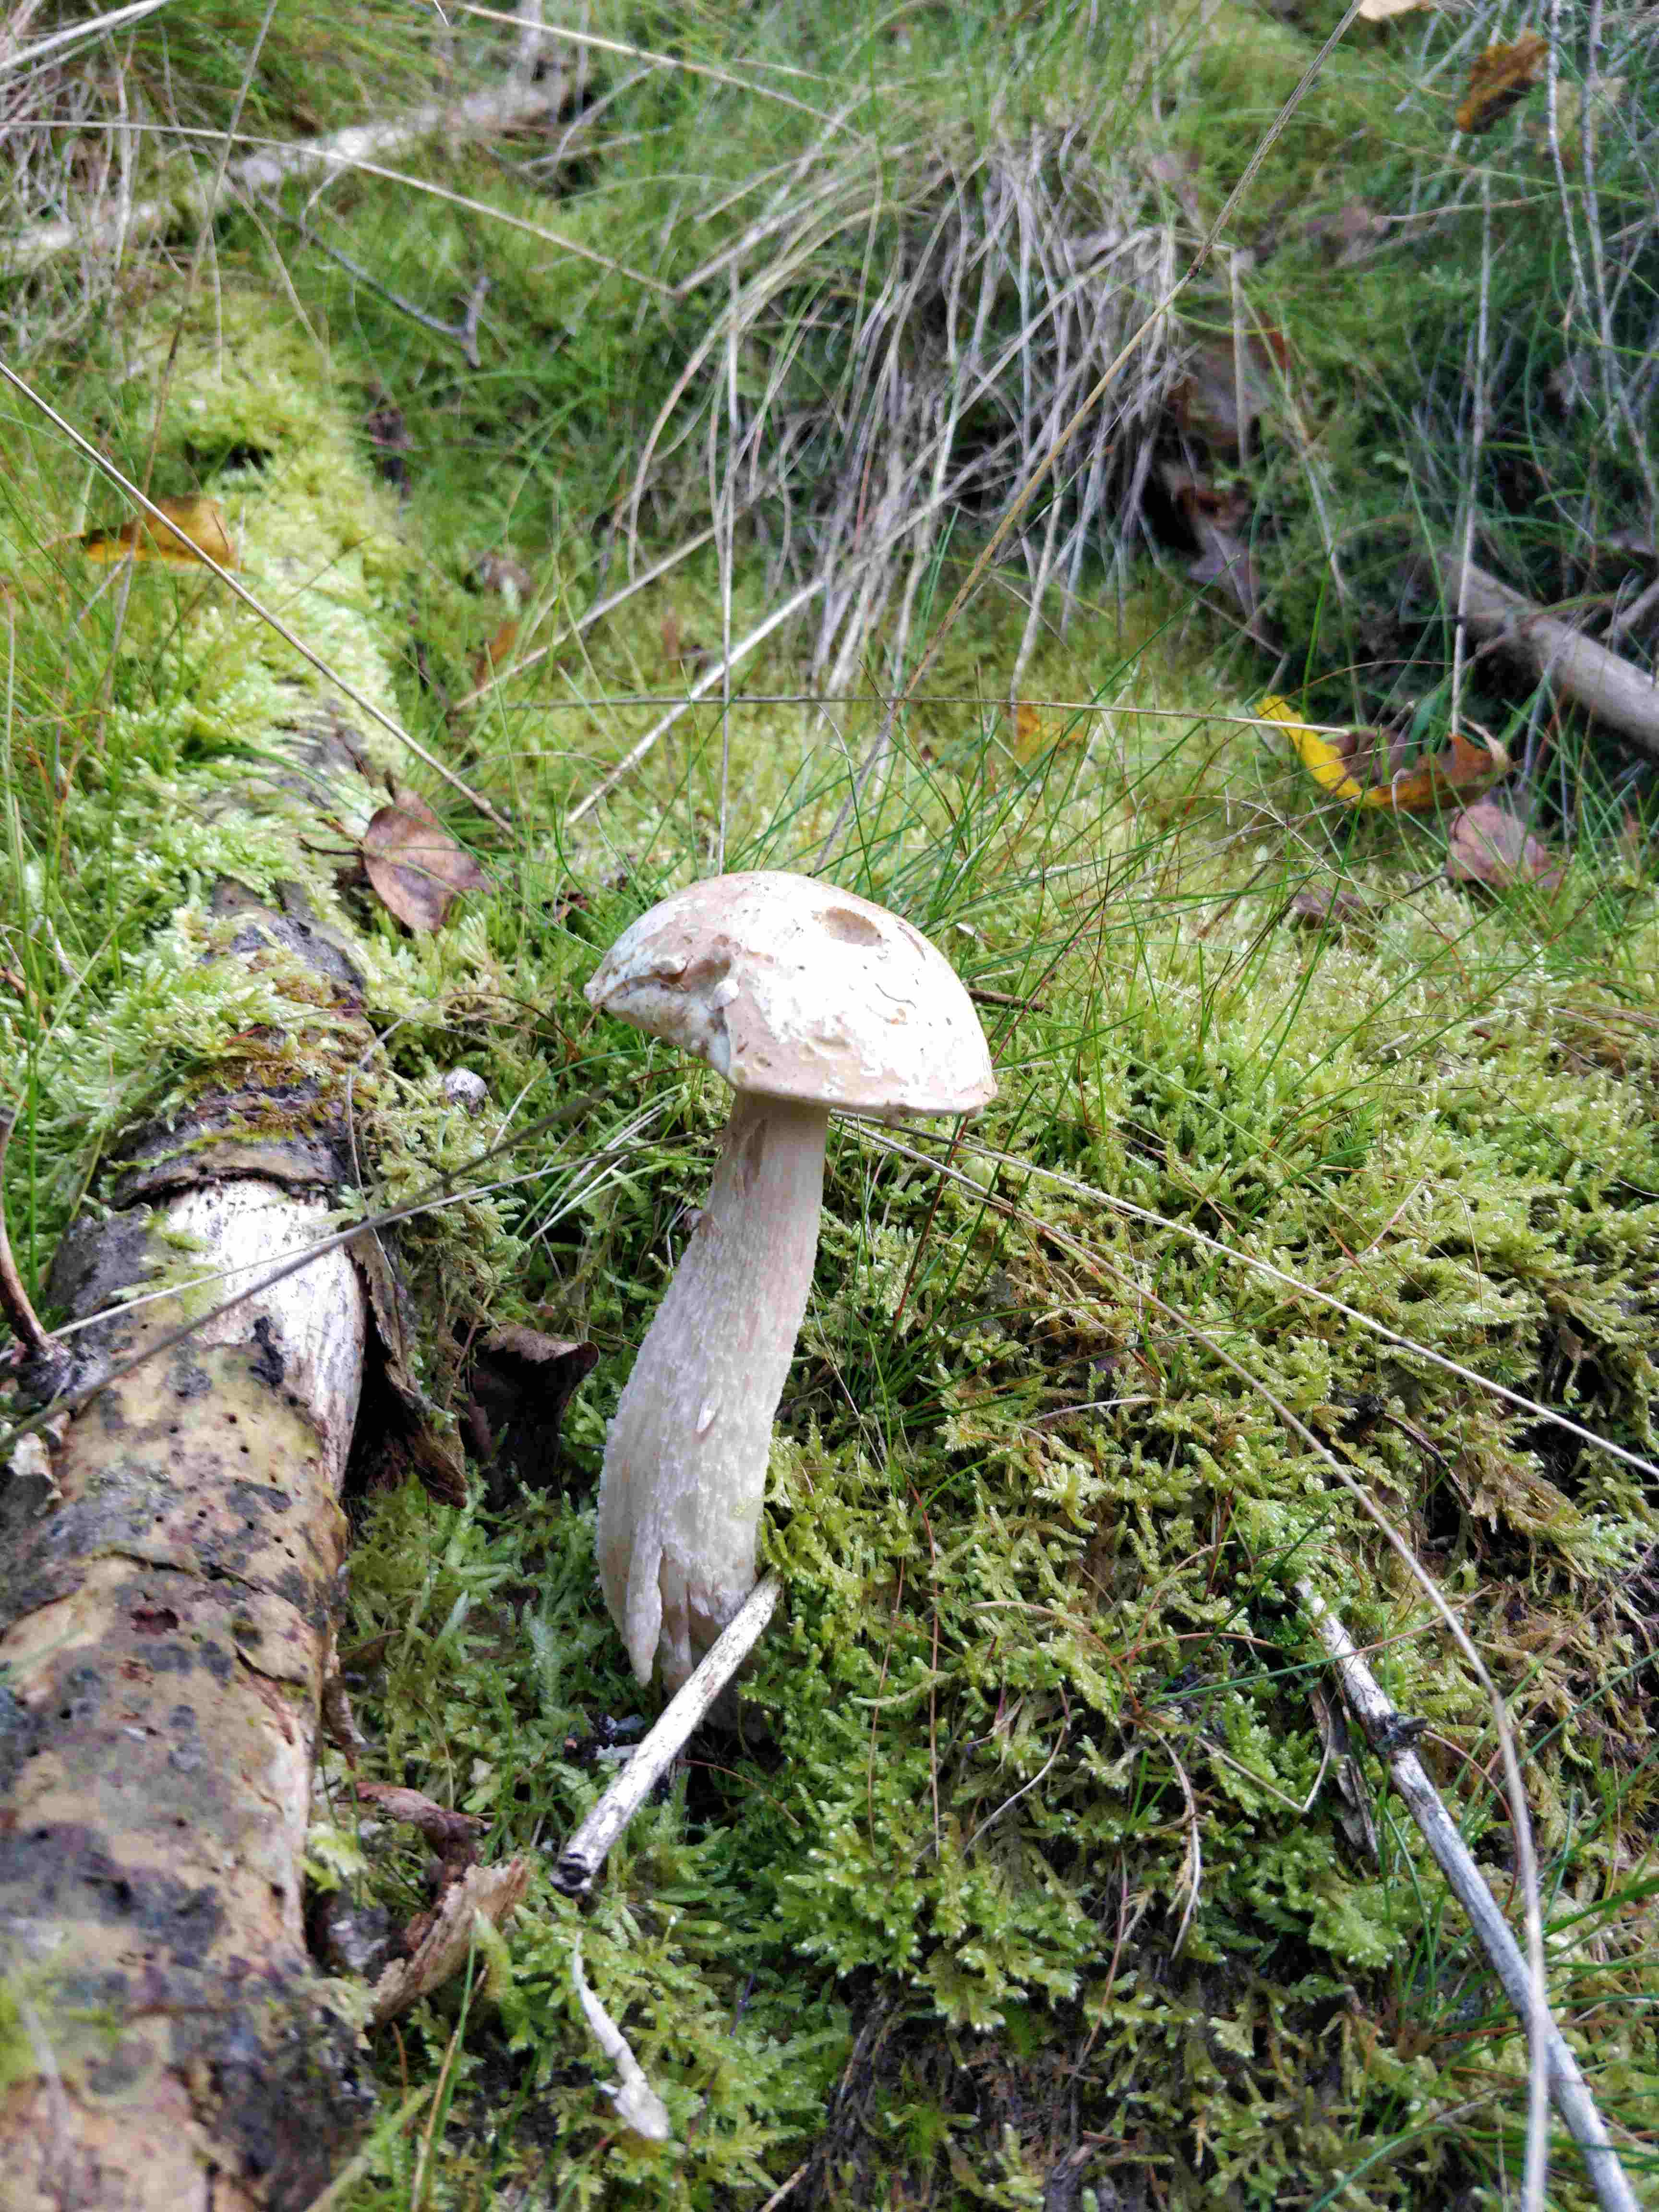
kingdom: Fungi
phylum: Basidiomycota
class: Agaricomycetes
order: Boletales
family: Boletaceae
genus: Leccinum
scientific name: Leccinum
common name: skælrørhat
